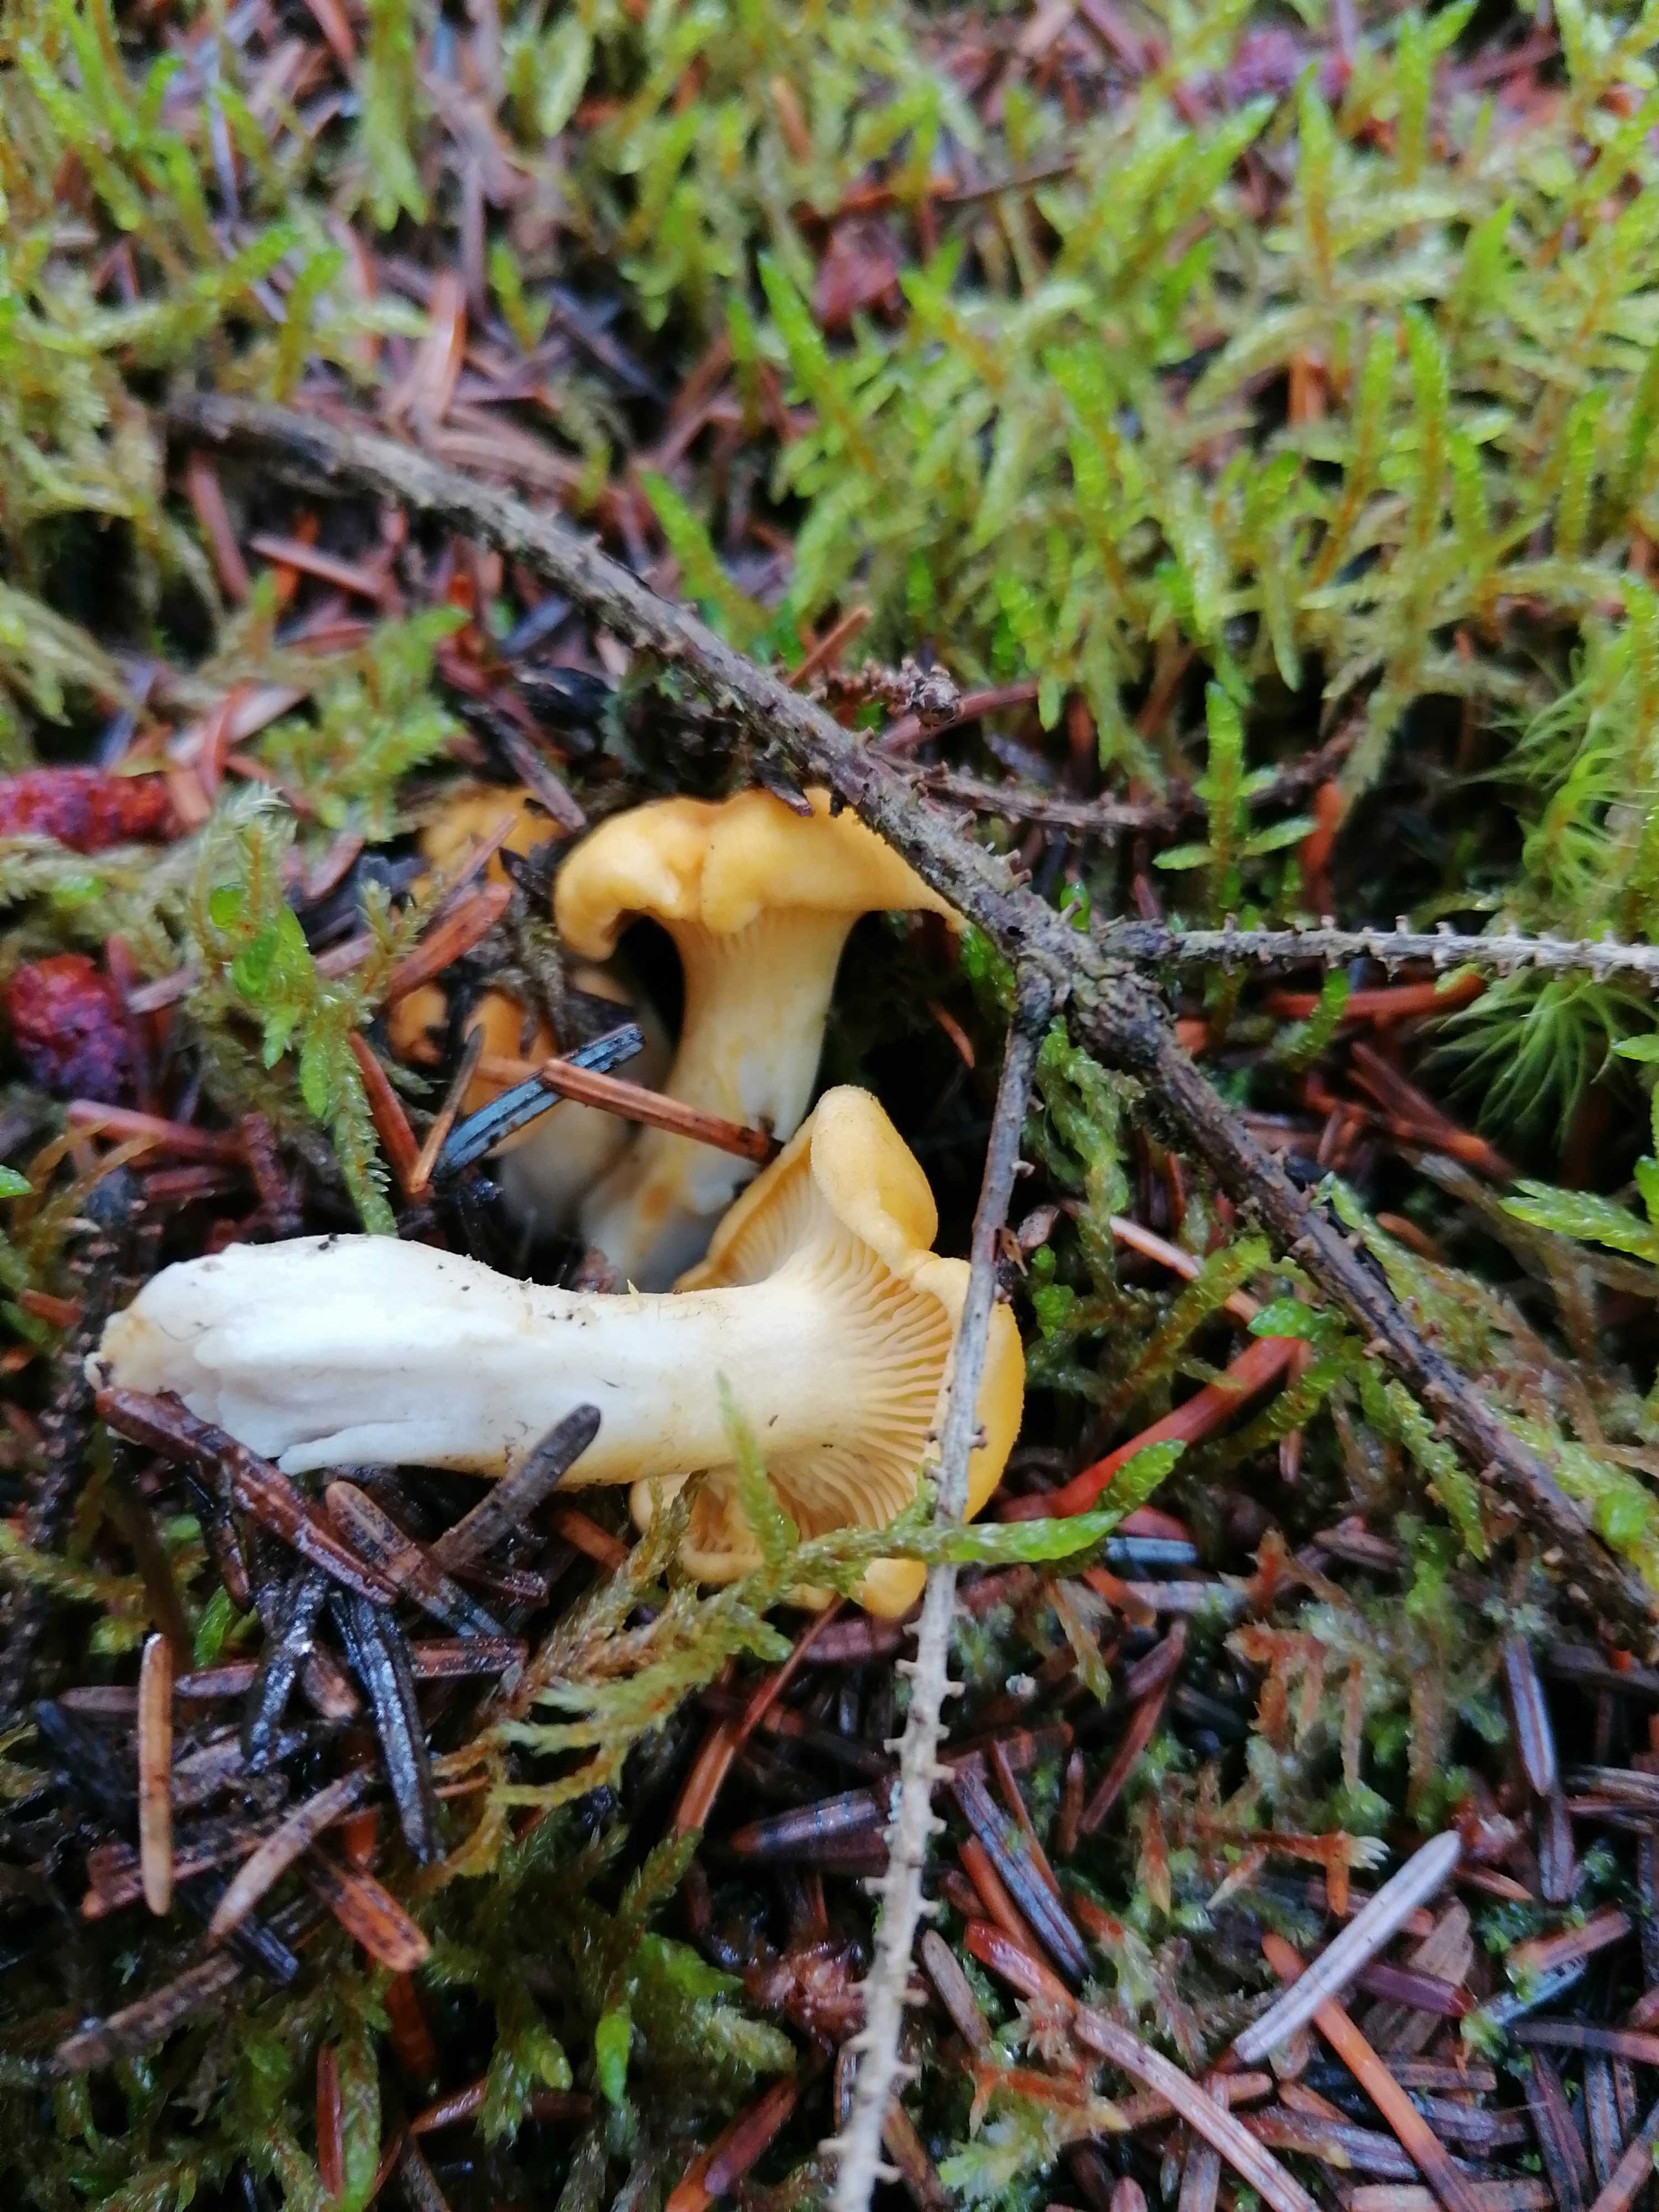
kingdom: Fungi
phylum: Basidiomycota
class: Agaricomycetes
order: Cantharellales
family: Hydnaceae
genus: Cantharellus
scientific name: Cantharellus cibarius
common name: almindelig kantarel
